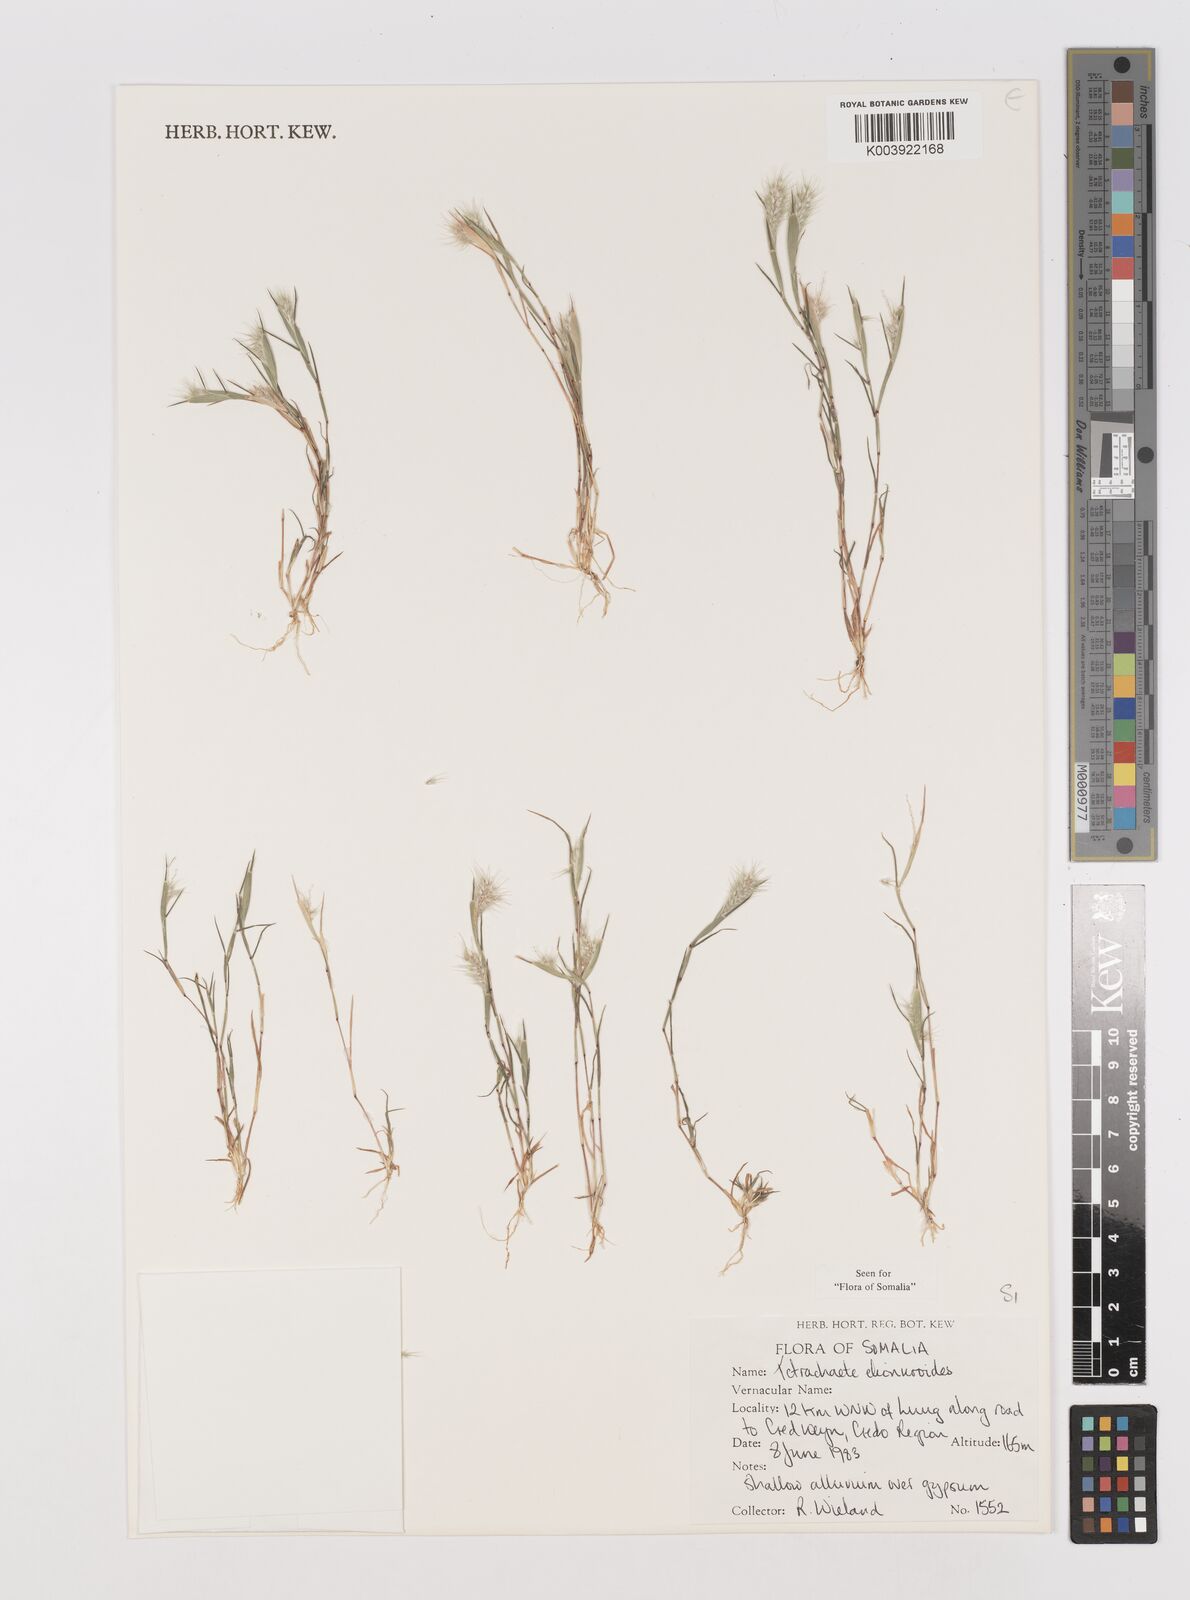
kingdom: Plantae
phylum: Tracheophyta
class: Liliopsida
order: Poales
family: Poaceae
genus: Tetrachaete
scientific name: Tetrachaete elionuroides
